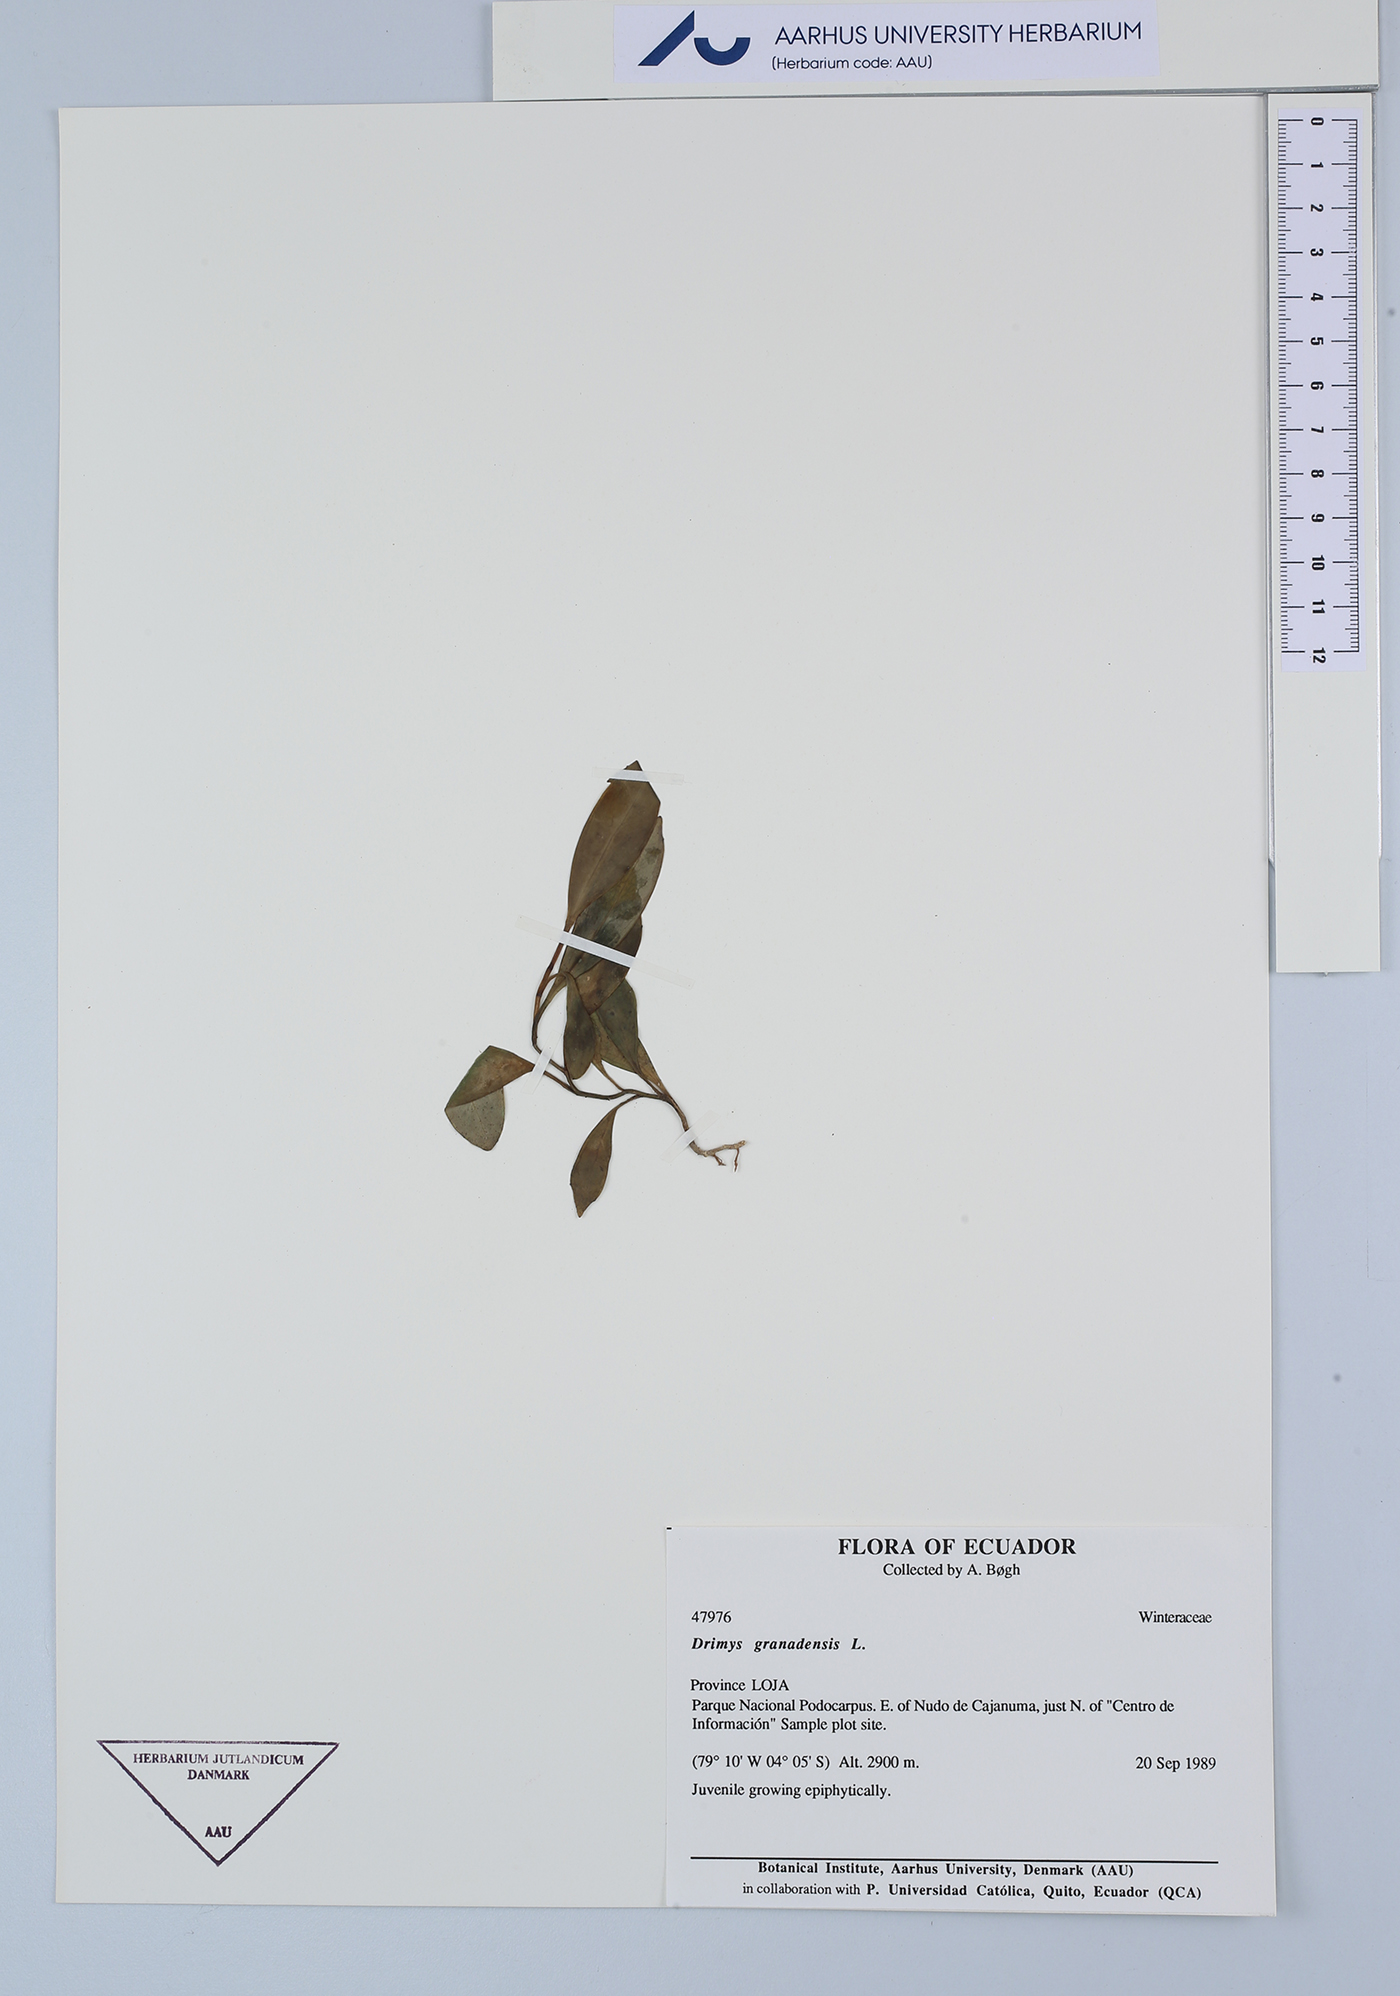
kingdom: Plantae
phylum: Tracheophyta
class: Magnoliopsida
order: Canellales
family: Winteraceae
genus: Drimys
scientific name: Drimys granadensis
